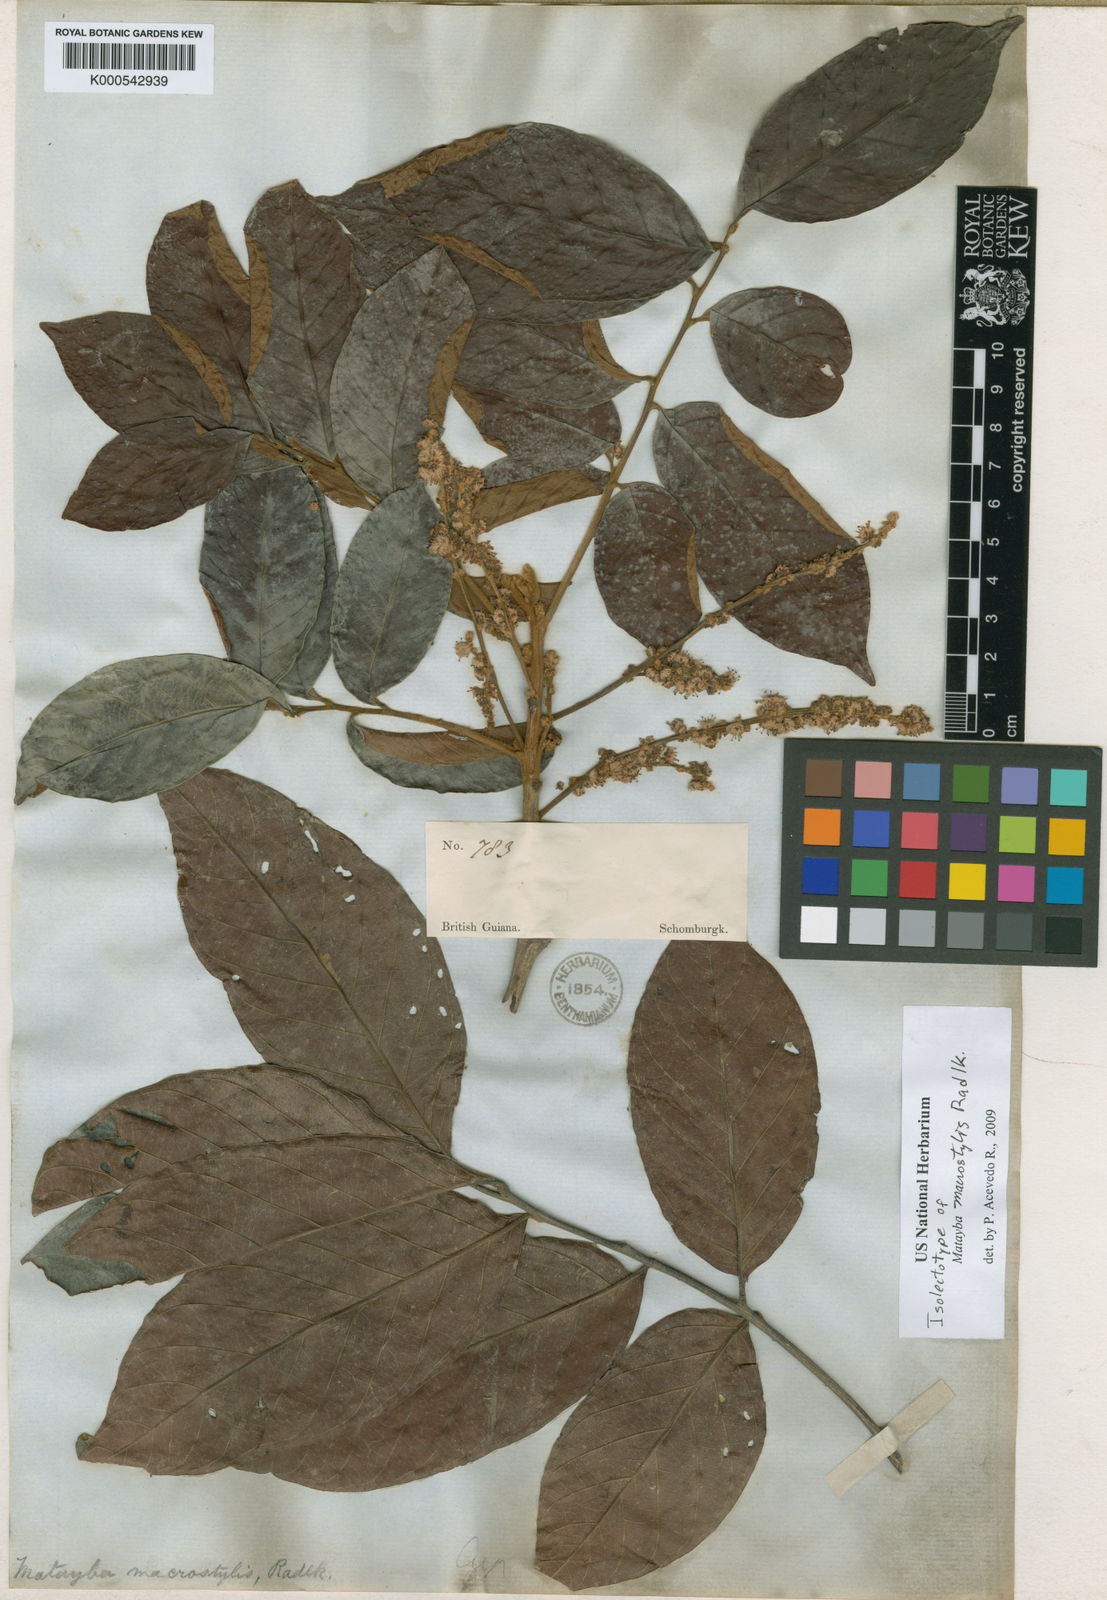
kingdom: Plantae
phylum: Tracheophyta
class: Magnoliopsida
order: Sapindales
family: Sapindaceae
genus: Cupania
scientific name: Cupania macrostylis
